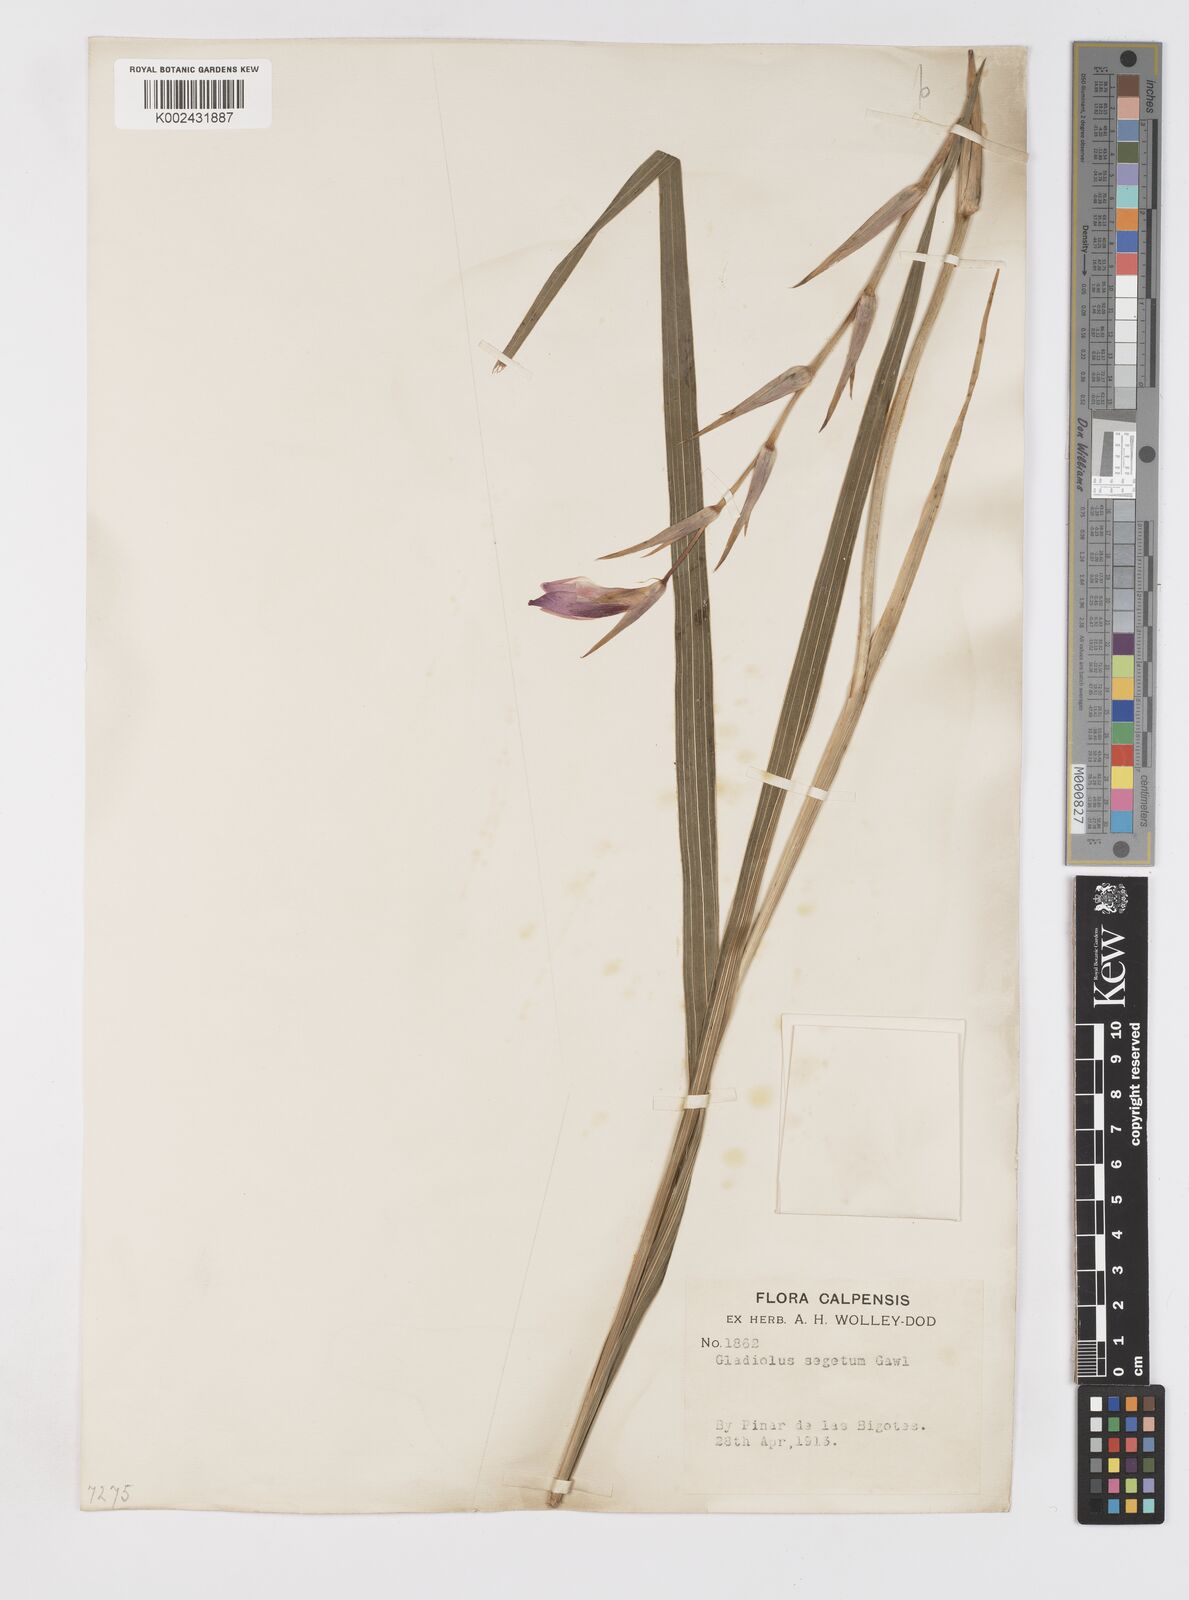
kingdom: Plantae
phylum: Tracheophyta
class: Liliopsida
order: Asparagales
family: Iridaceae
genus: Gladiolus
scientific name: Gladiolus italicus
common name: Field gladiolus
